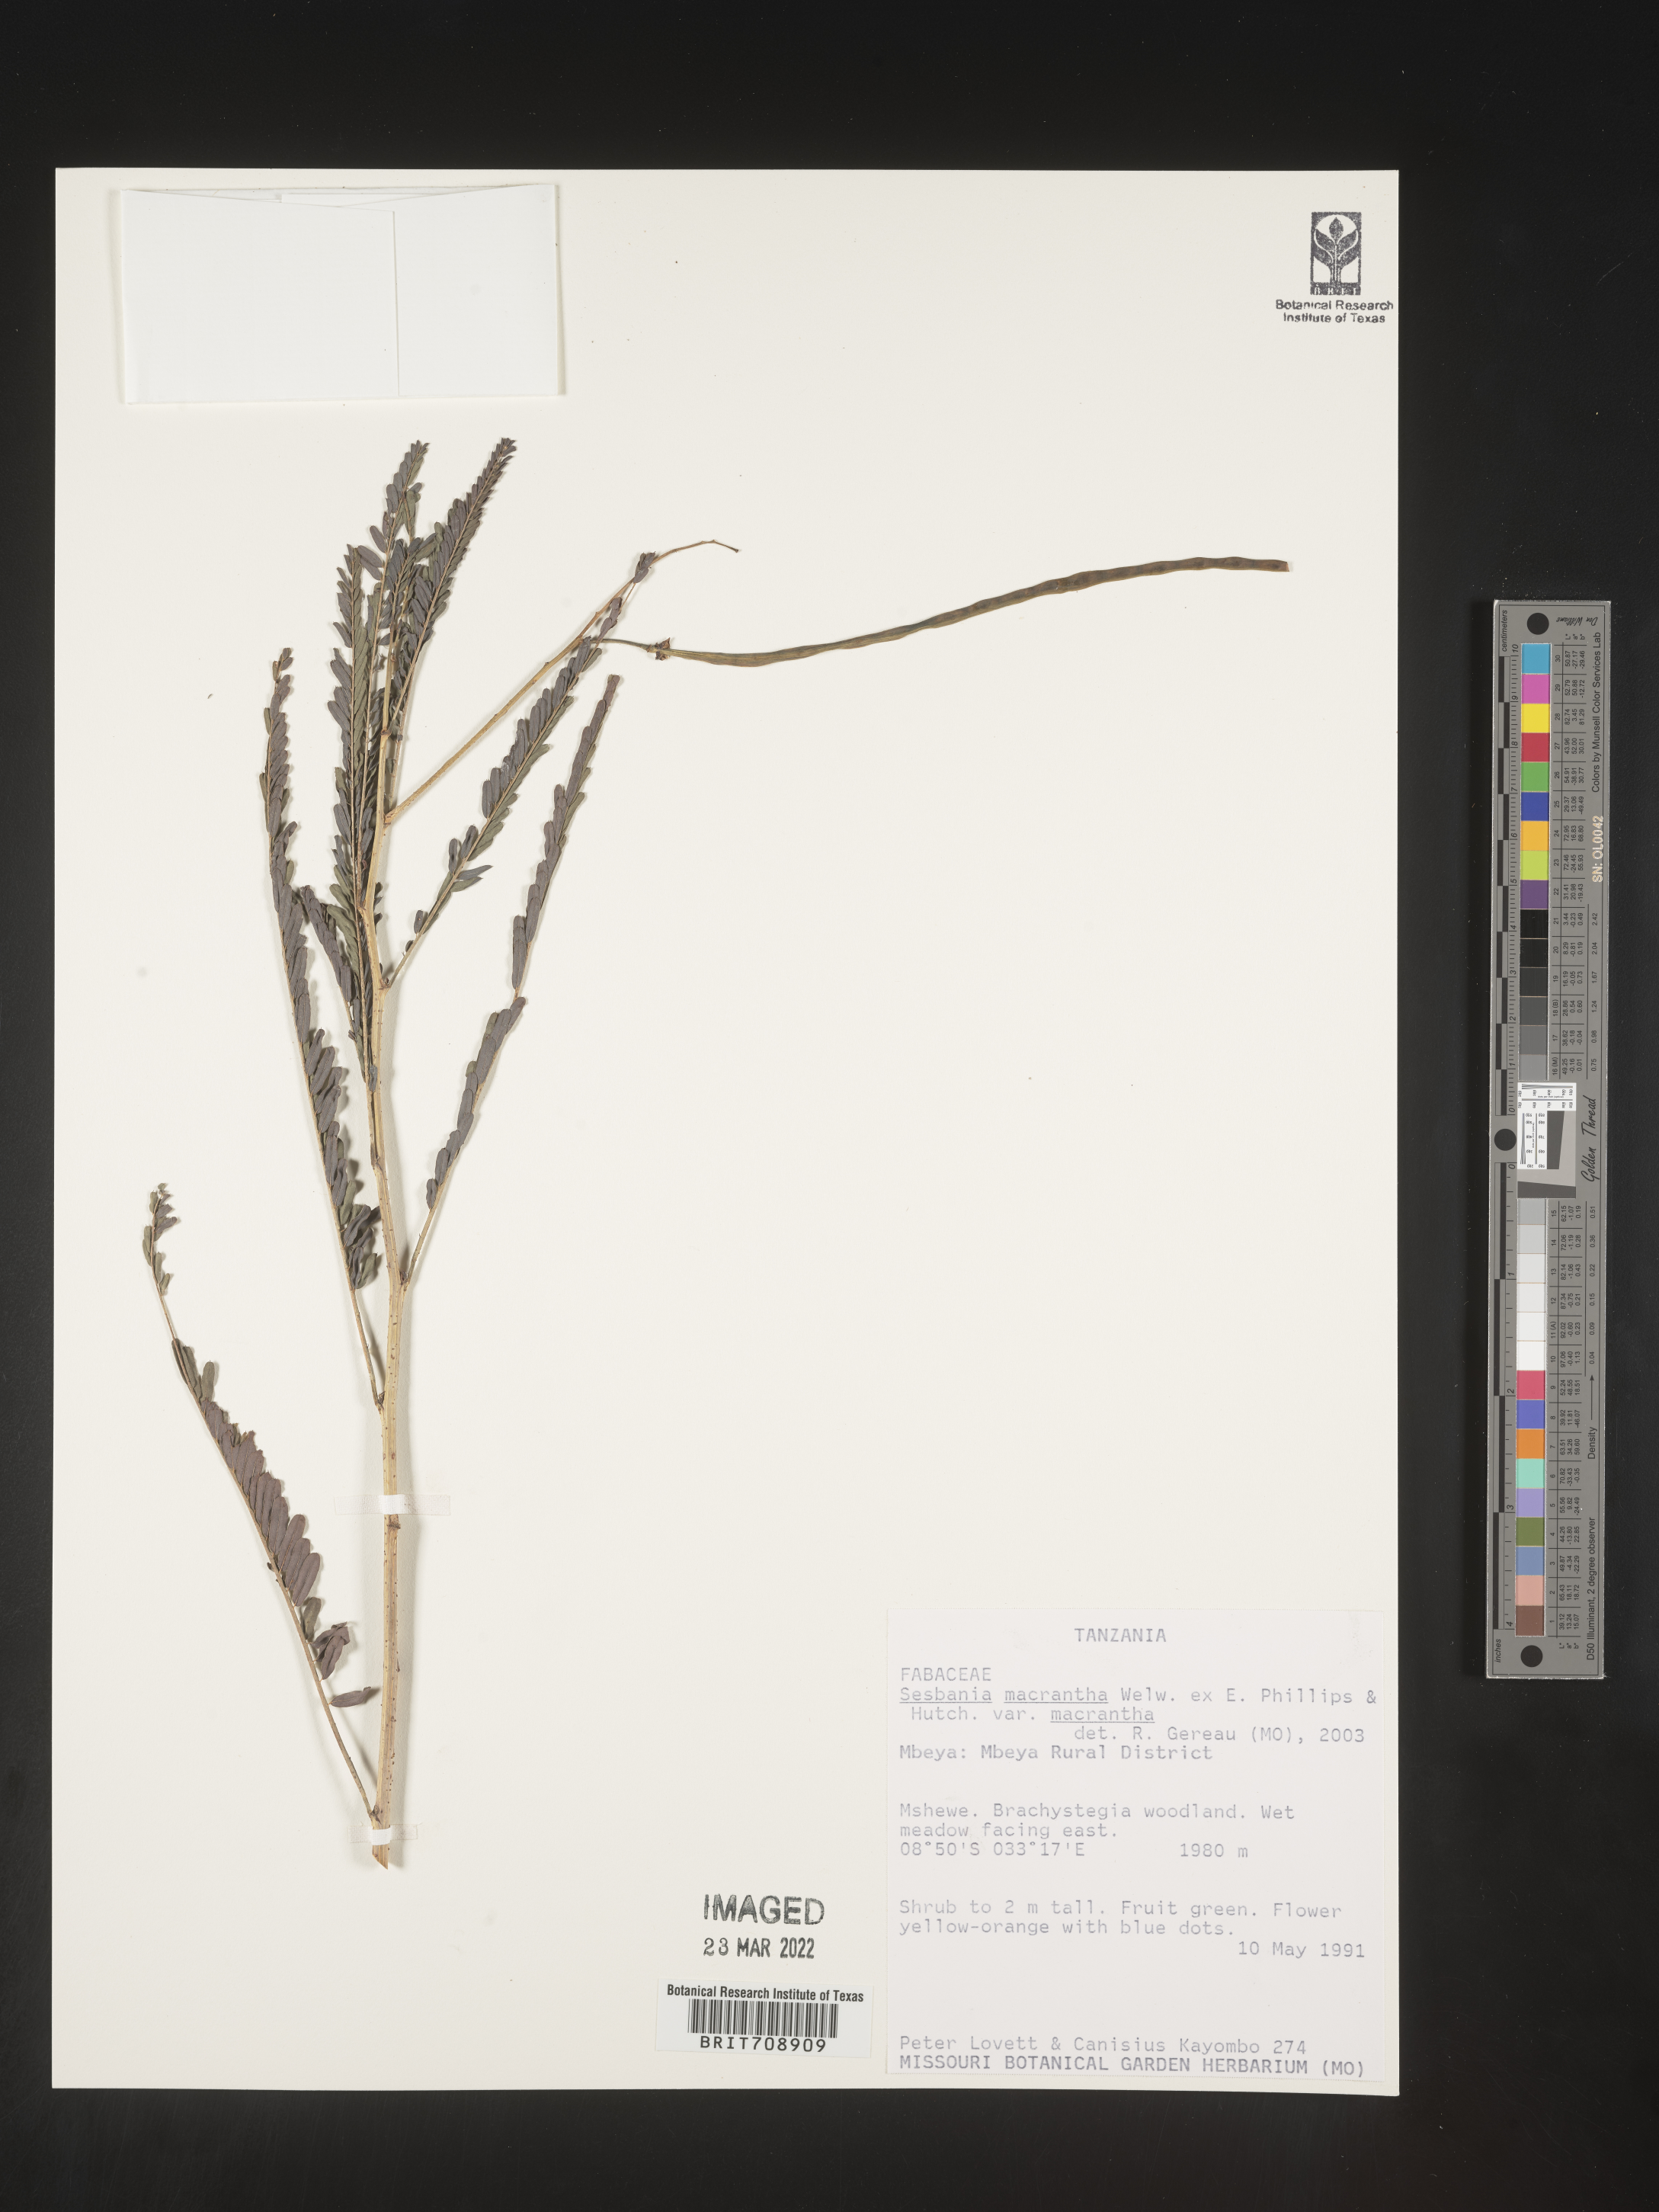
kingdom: Plantae
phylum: Tracheophyta
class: Magnoliopsida
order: Fabales
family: Fabaceae
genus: Sesbania
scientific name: Sesbania
